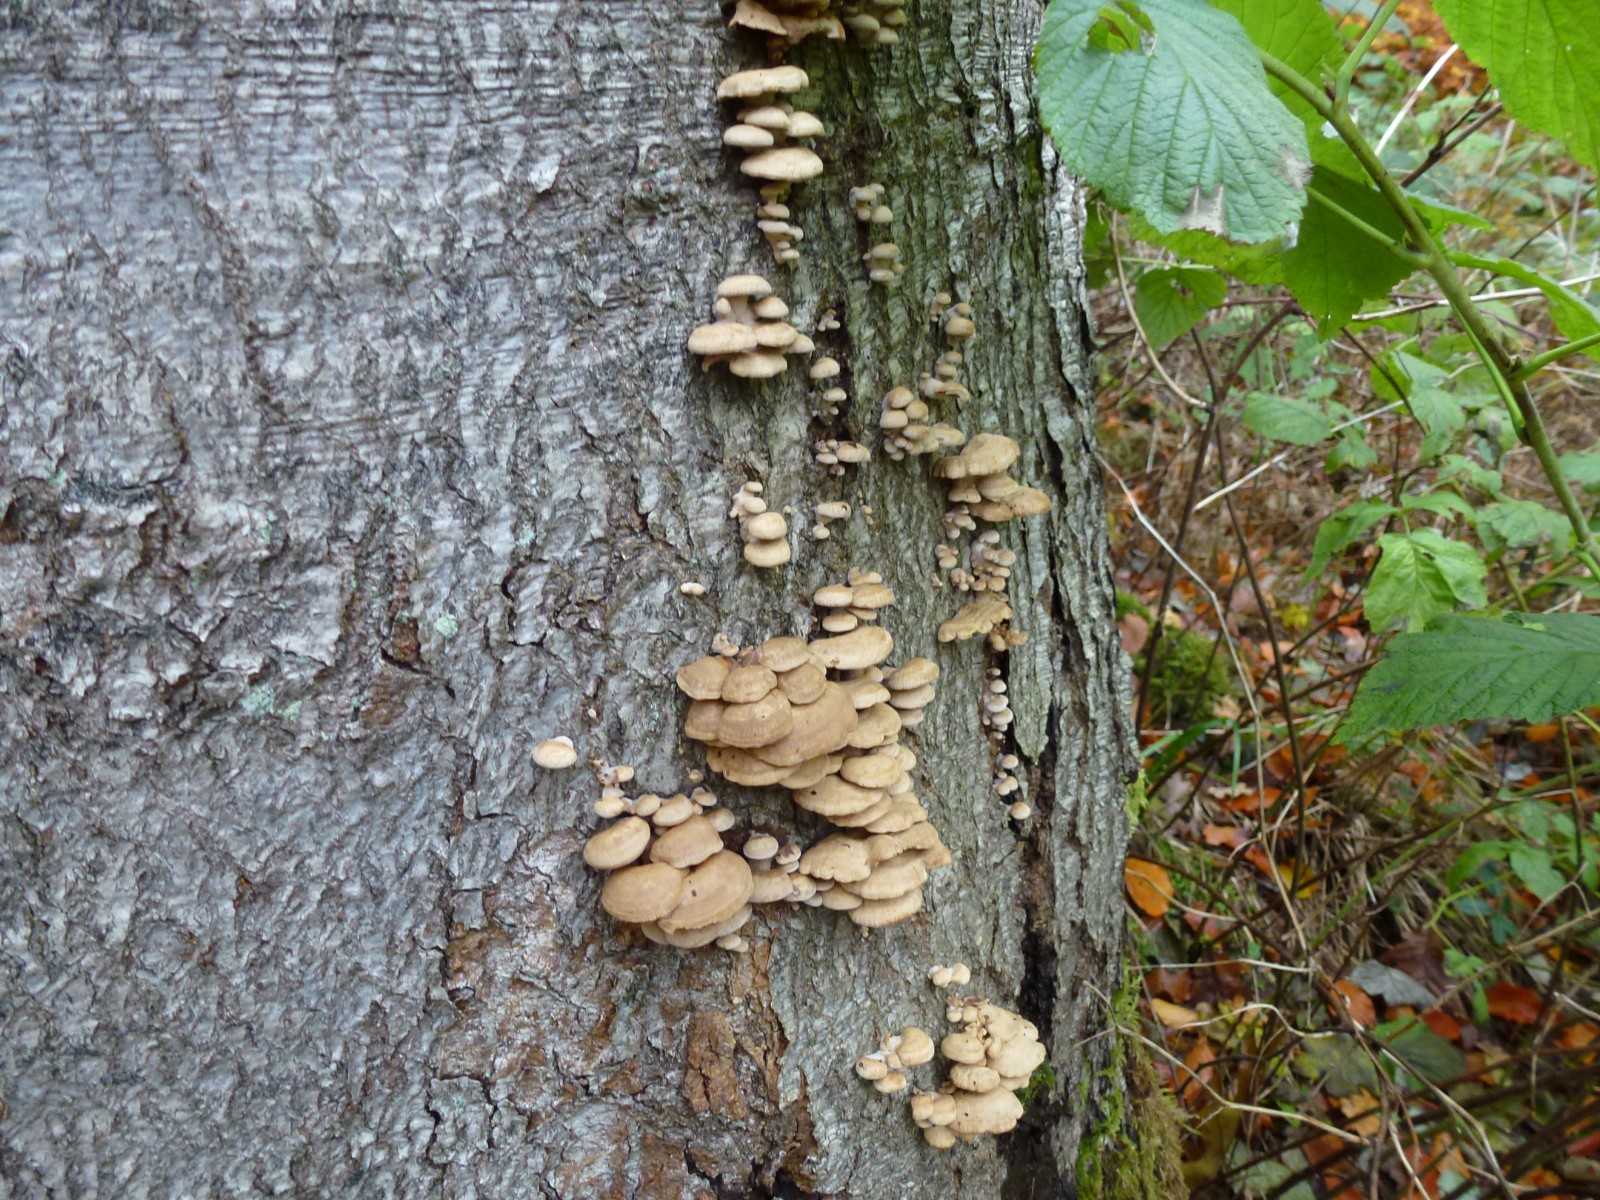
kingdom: Fungi
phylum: Basidiomycota
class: Agaricomycetes
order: Agaricales
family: Mycenaceae
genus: Panellus
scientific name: Panellus stipticus
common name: kliddet epaulethat
